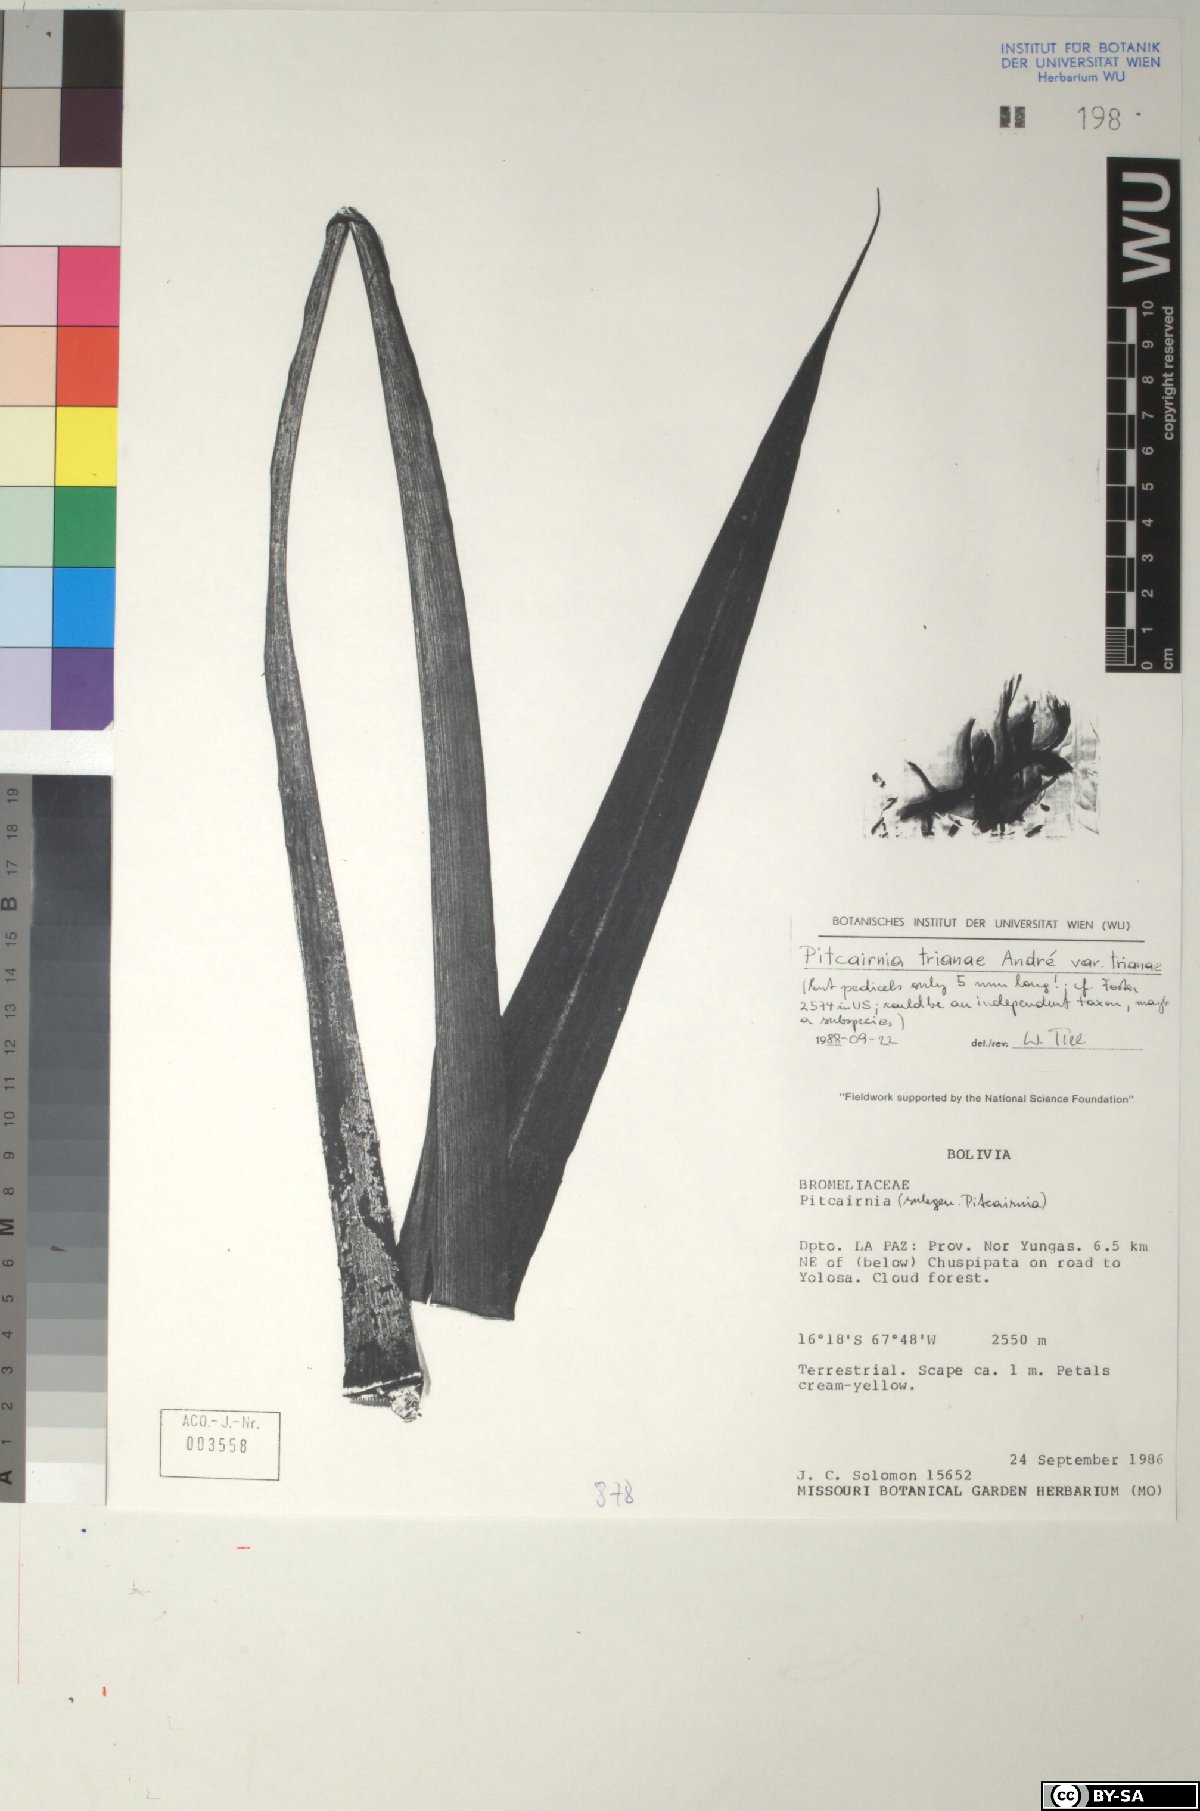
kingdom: Plantae
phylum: Tracheophyta
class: Liliopsida
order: Poales
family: Bromeliaceae
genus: Pitcairnia
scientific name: Pitcairnia trianae
